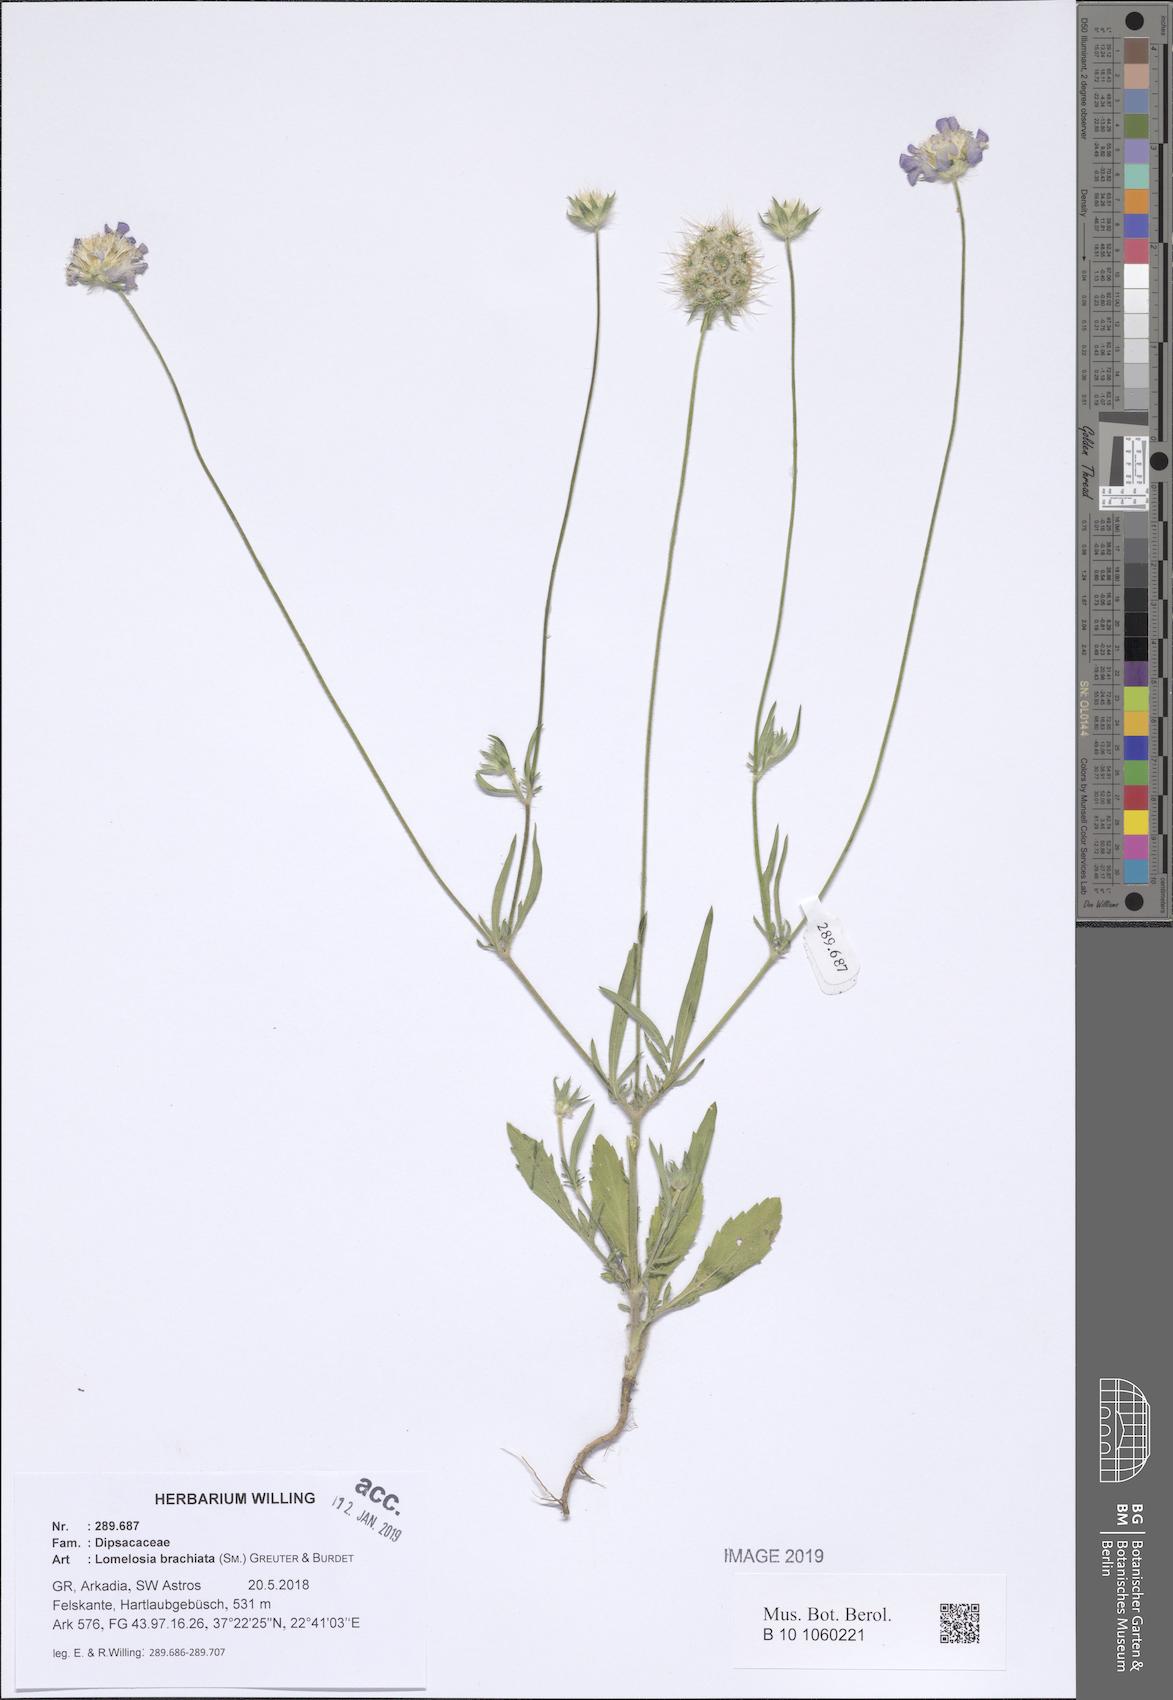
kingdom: Plantae
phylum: Tracheophyta
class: Magnoliopsida
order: Dipsacales
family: Caprifoliaceae
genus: Lomelosia
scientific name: Lomelosia brachiata
